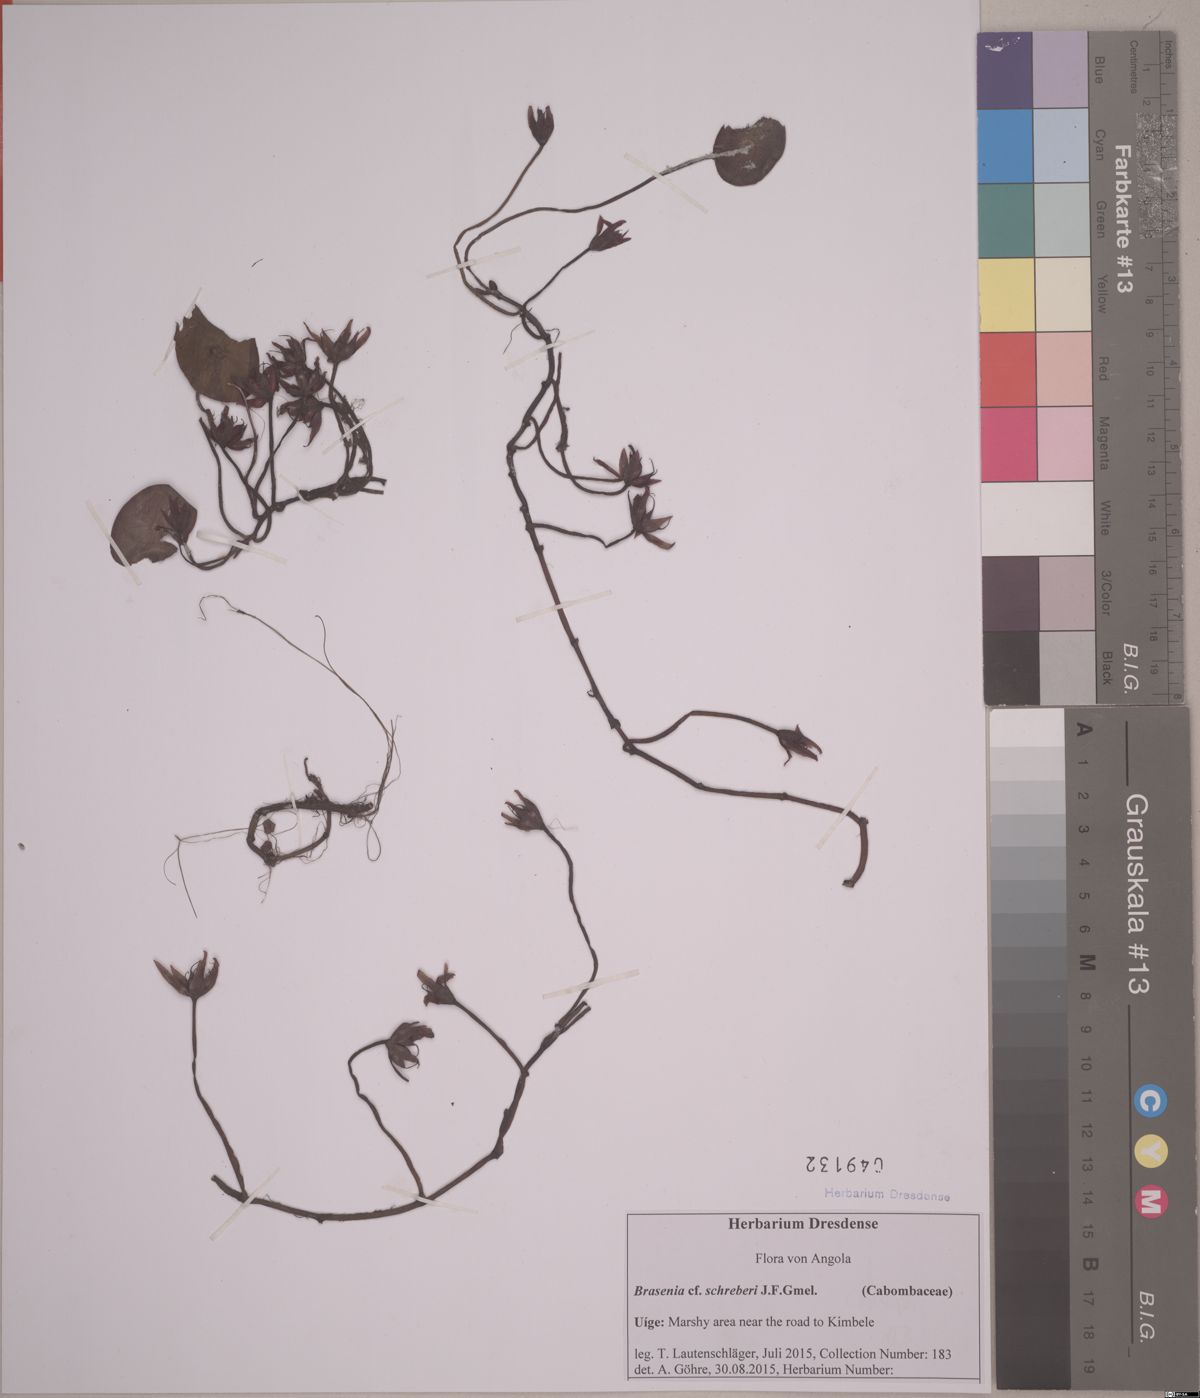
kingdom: Plantae
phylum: Tracheophyta
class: Magnoliopsida
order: Nymphaeales
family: Cabombaceae
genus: Brasenia
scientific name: Brasenia schreberi
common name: Water-shield
